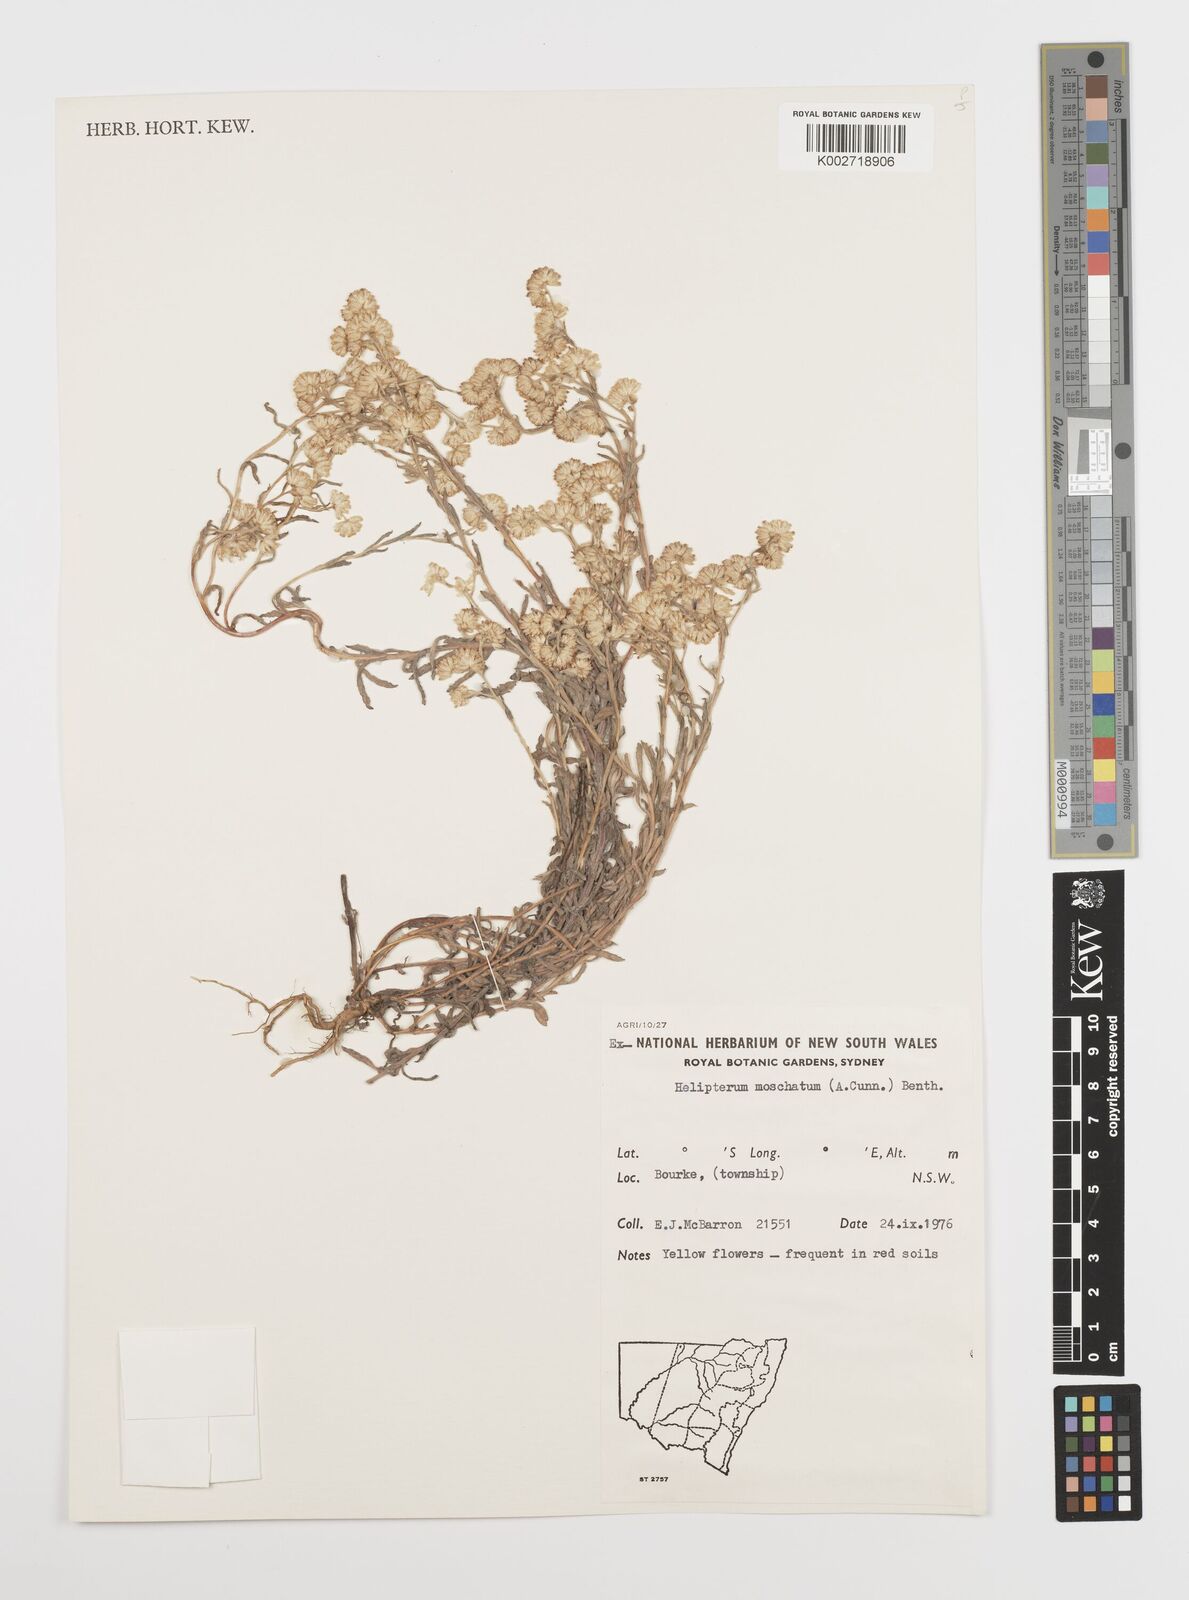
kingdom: Plantae
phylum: Tracheophyta
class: Magnoliopsida
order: Asterales
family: Asteraceae
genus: Rhodanthe
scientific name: Rhodanthe moschata
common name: Musk sunray
